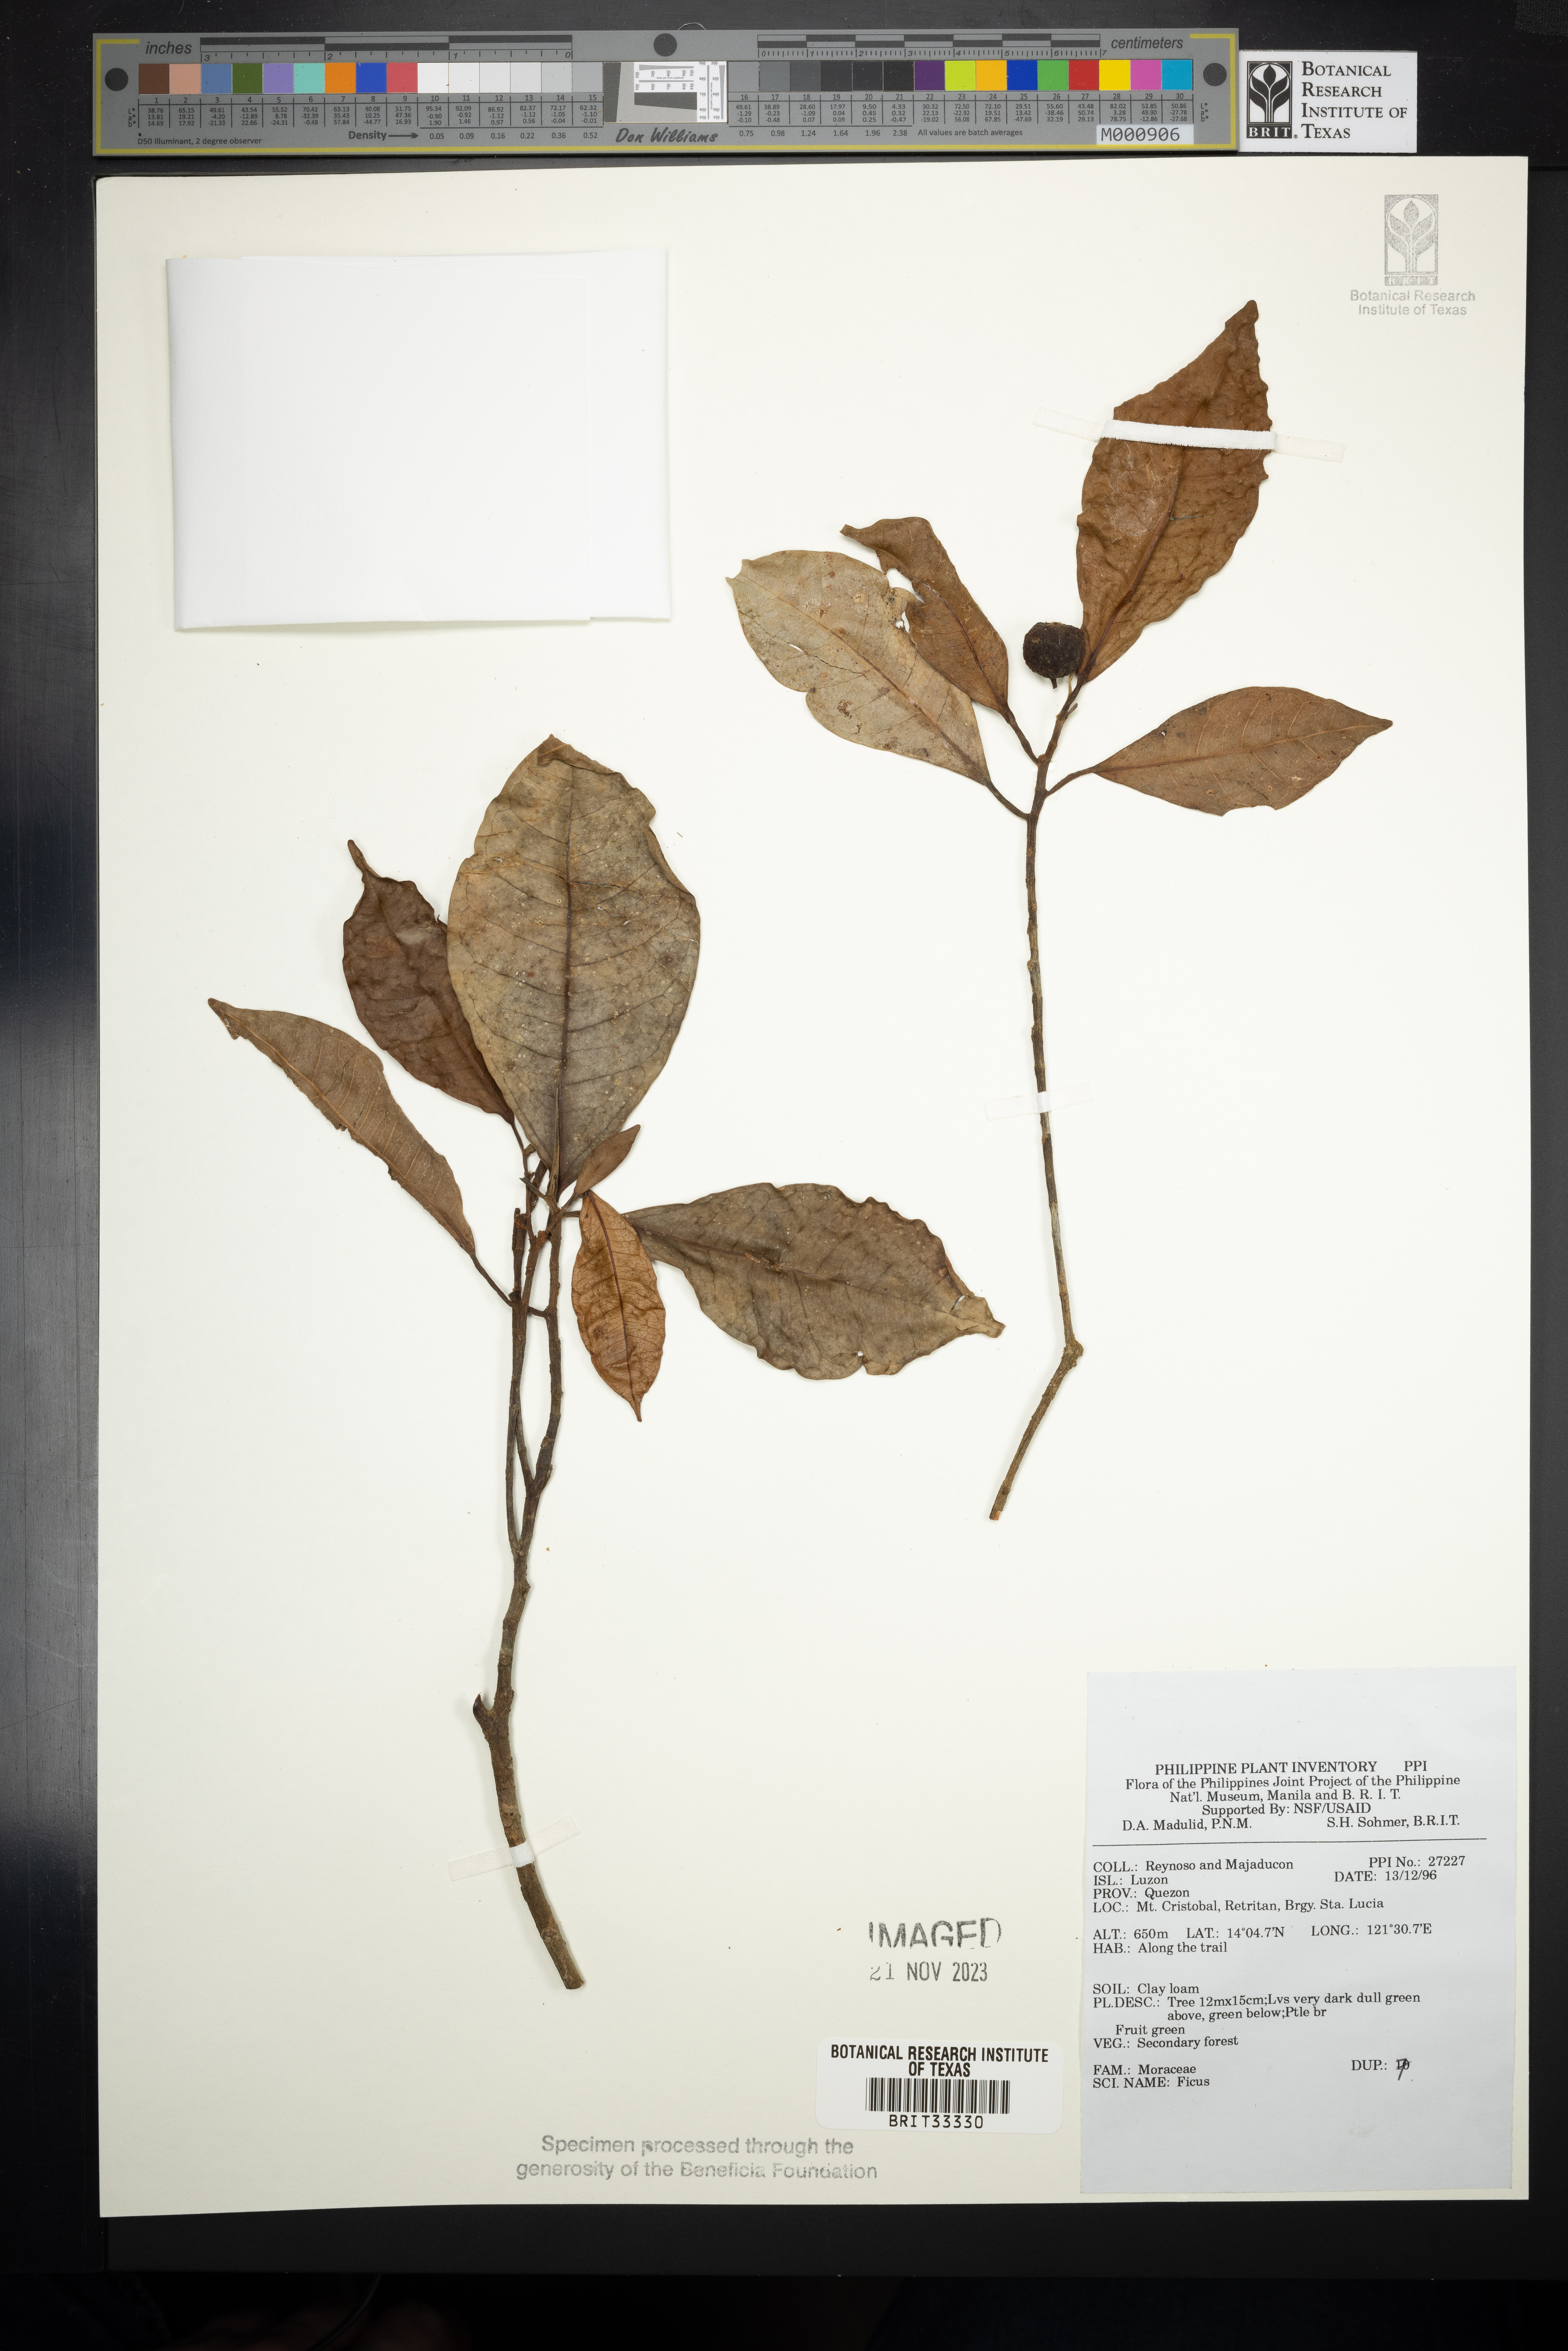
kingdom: Plantae
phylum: Tracheophyta
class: Magnoliopsida
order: Rosales
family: Moraceae
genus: Ficus
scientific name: Ficus
